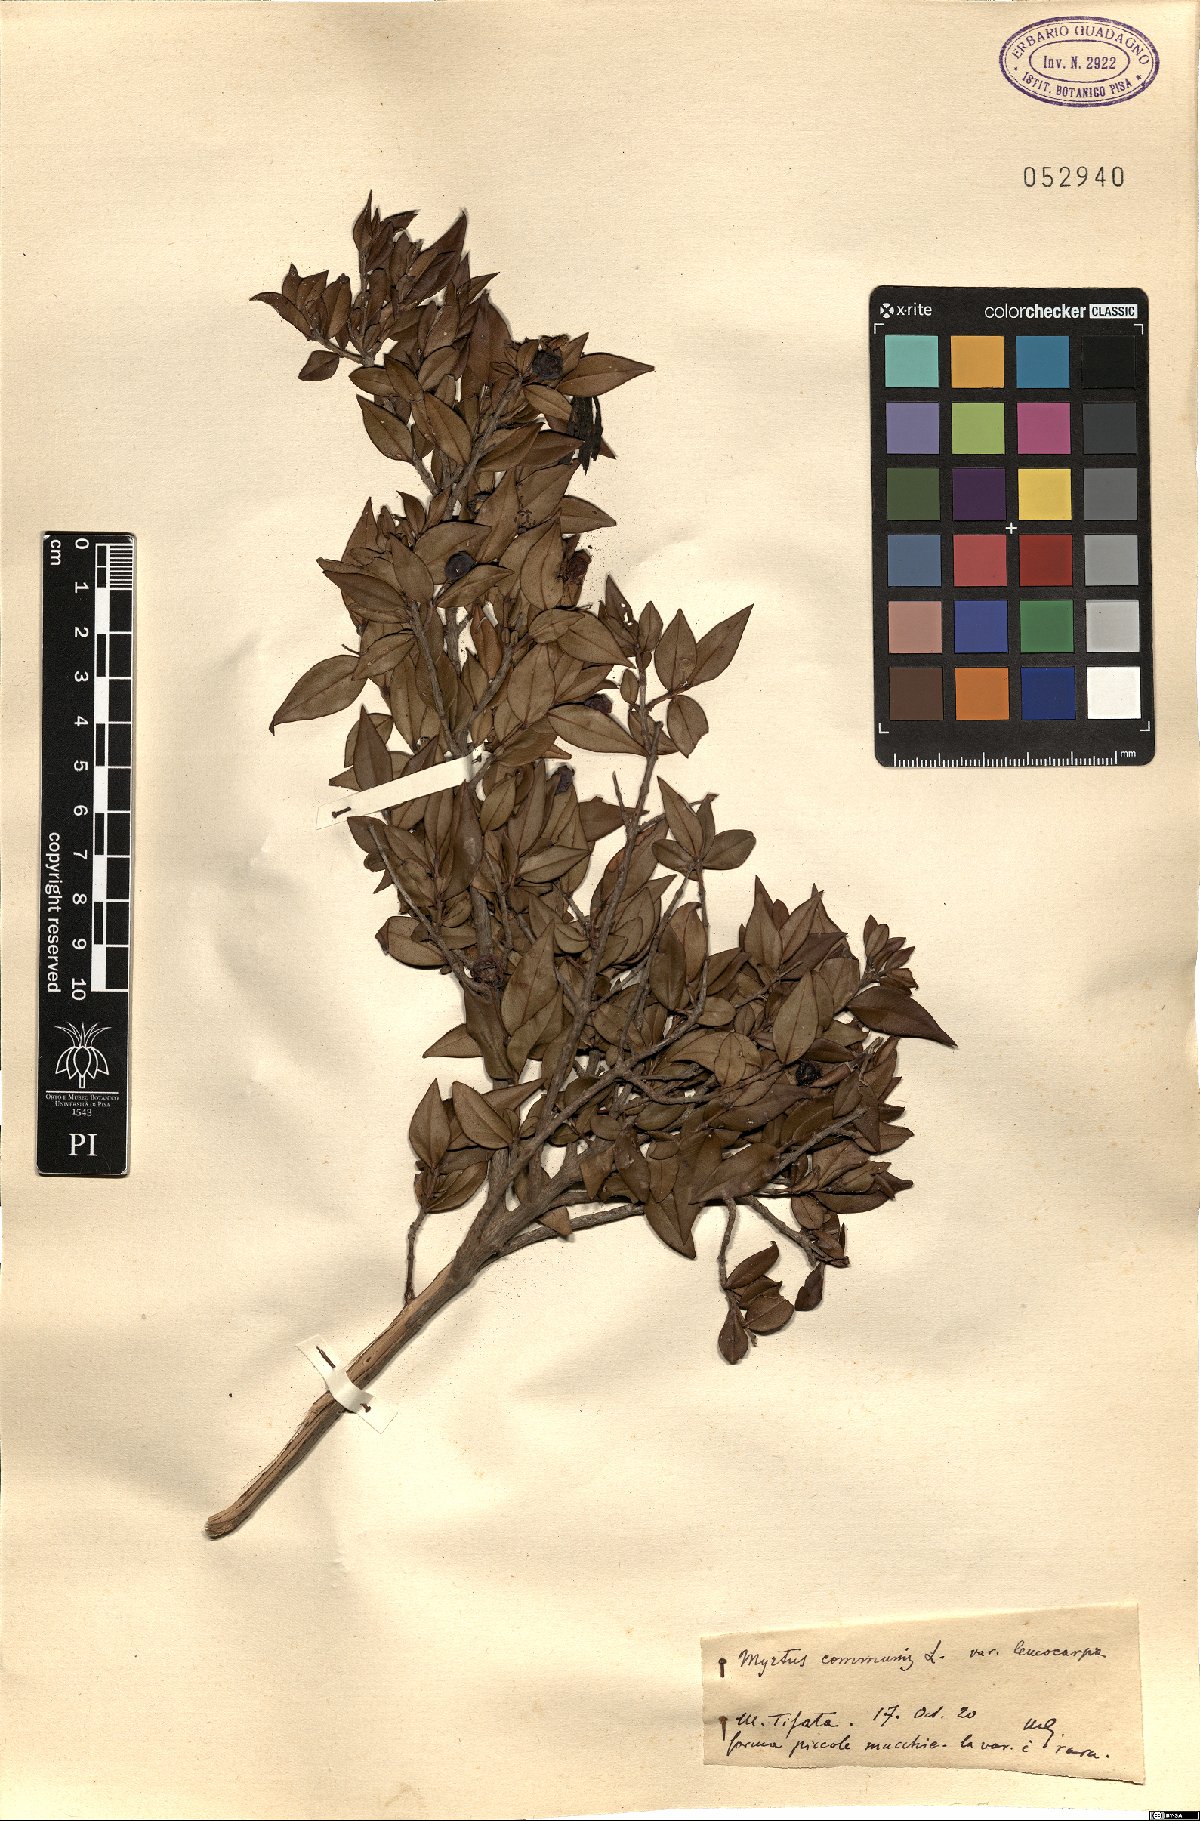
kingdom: Plantae
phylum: Tracheophyta
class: Magnoliopsida
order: Myrtales
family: Myrtaceae
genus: Myrtus
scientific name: Myrtus communis
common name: Myrtle
